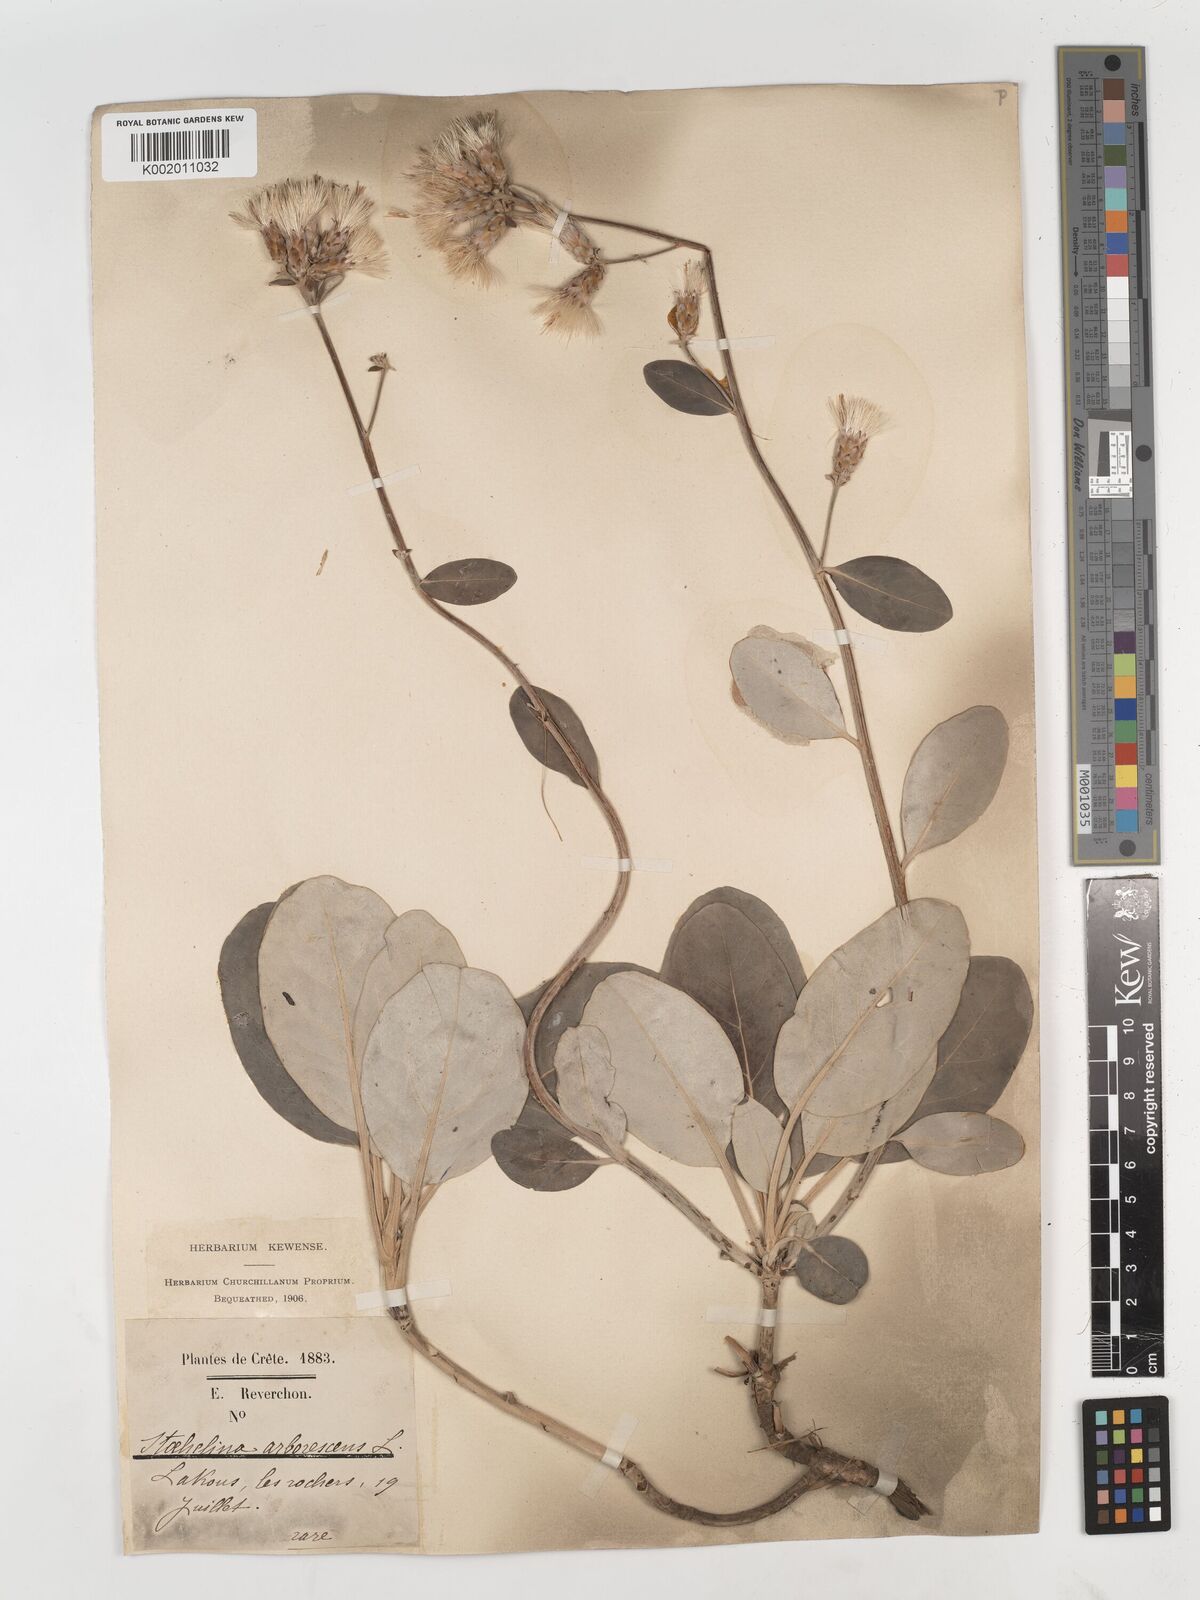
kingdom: Plantae
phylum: Tracheophyta
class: Magnoliopsida
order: Asterales
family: Asteraceae
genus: Staehelina
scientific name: Staehelina petiolata
